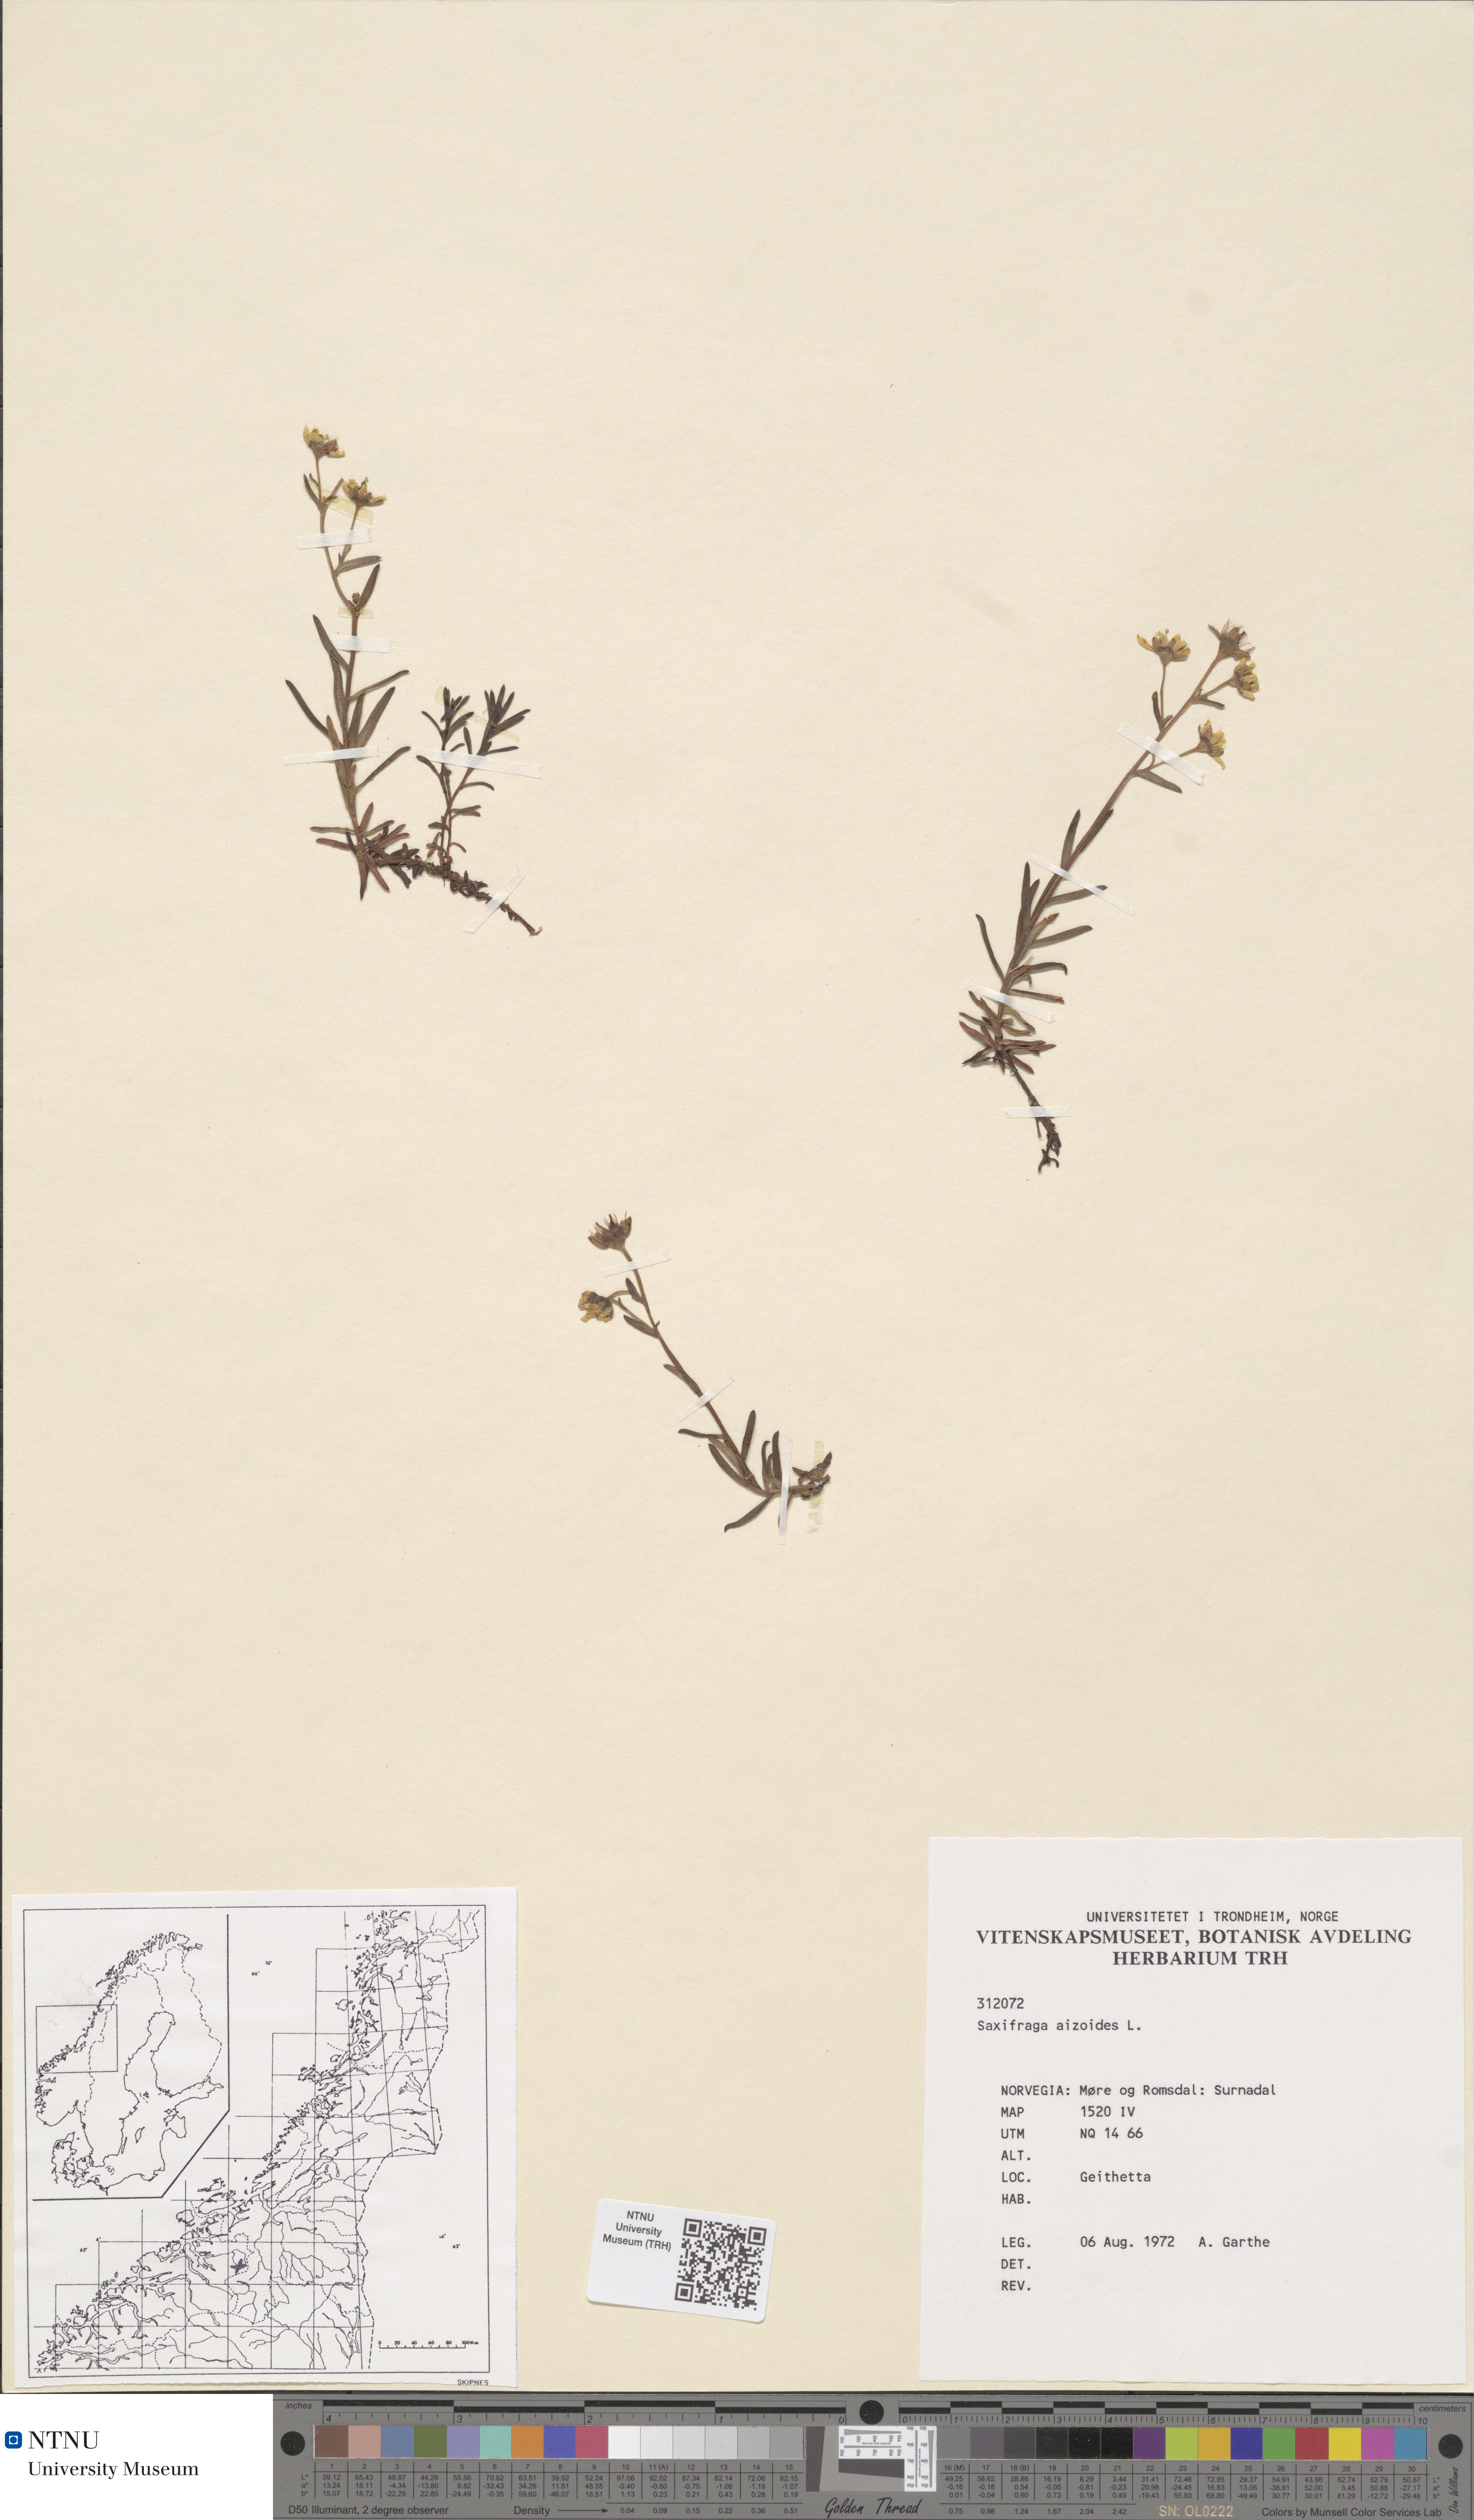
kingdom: Plantae
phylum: Tracheophyta
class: Magnoliopsida
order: Saxifragales
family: Saxifragaceae
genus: Saxifraga
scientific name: Saxifraga aizoides
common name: Yellow mountain saxifrage
